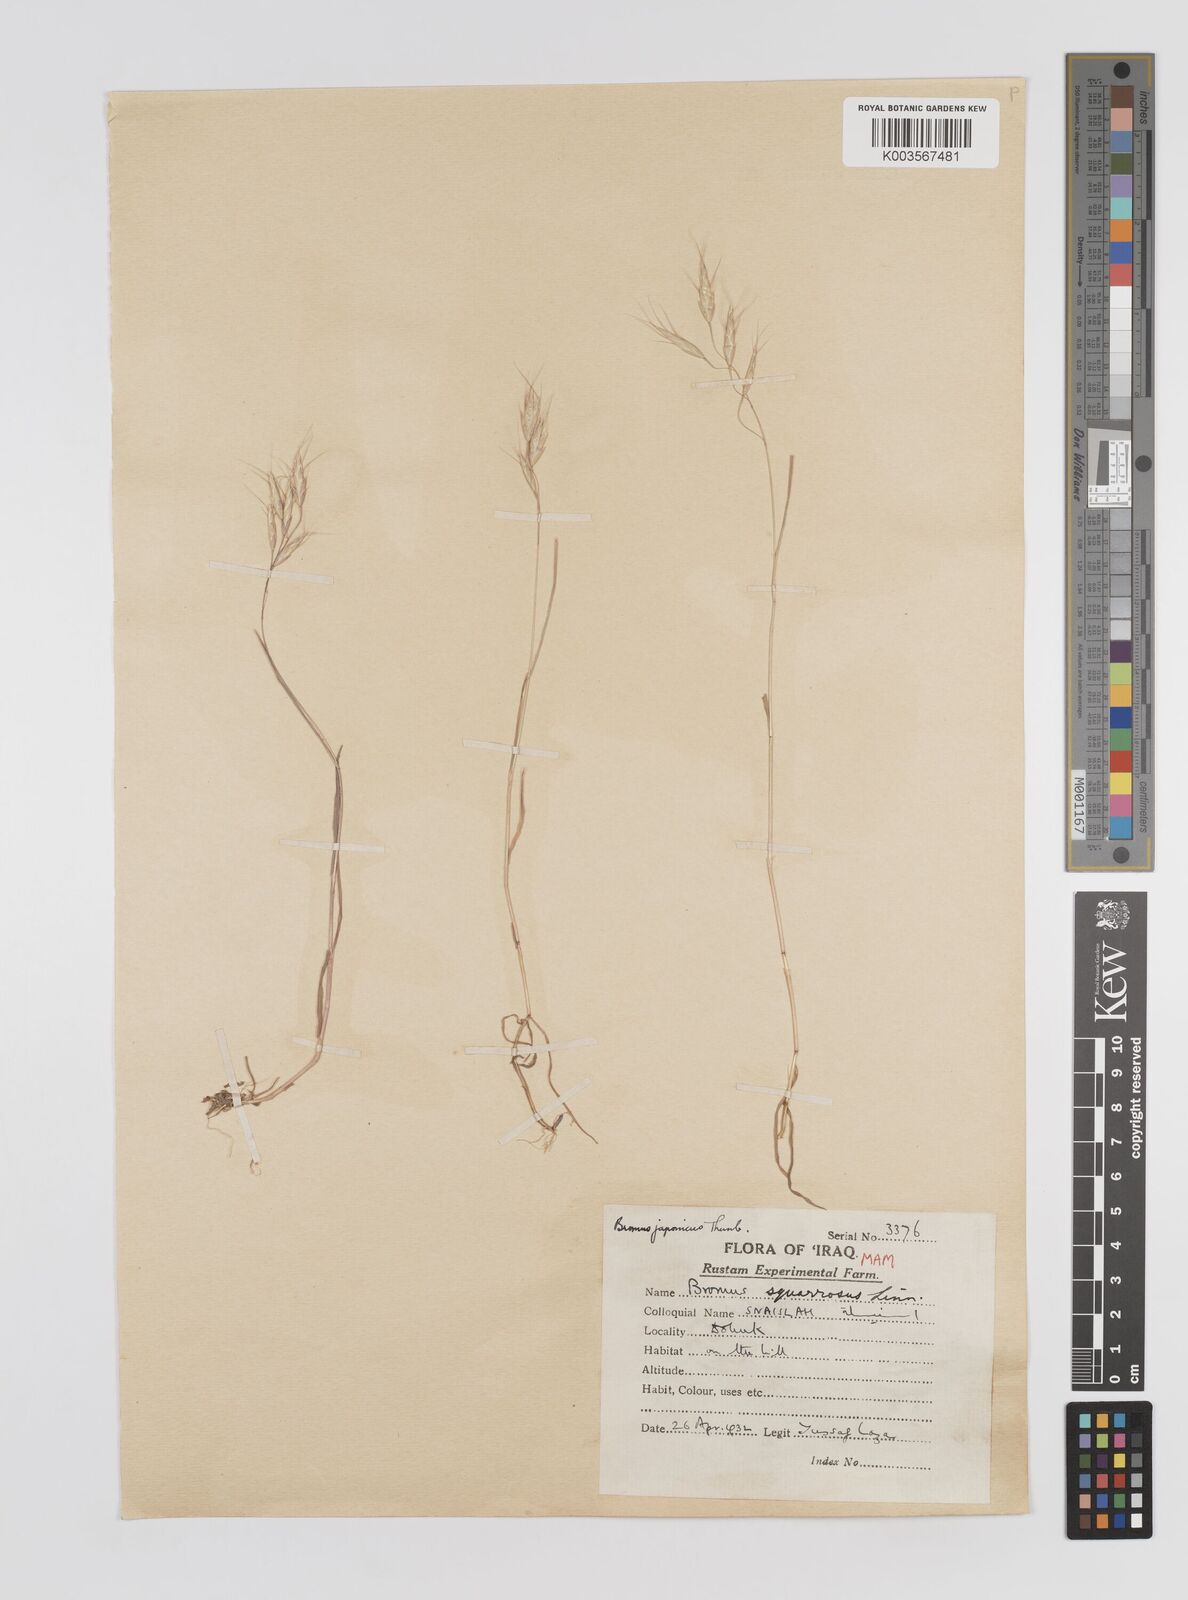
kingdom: Plantae
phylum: Tracheophyta
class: Liliopsida
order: Poales
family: Poaceae
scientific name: Poaceae
